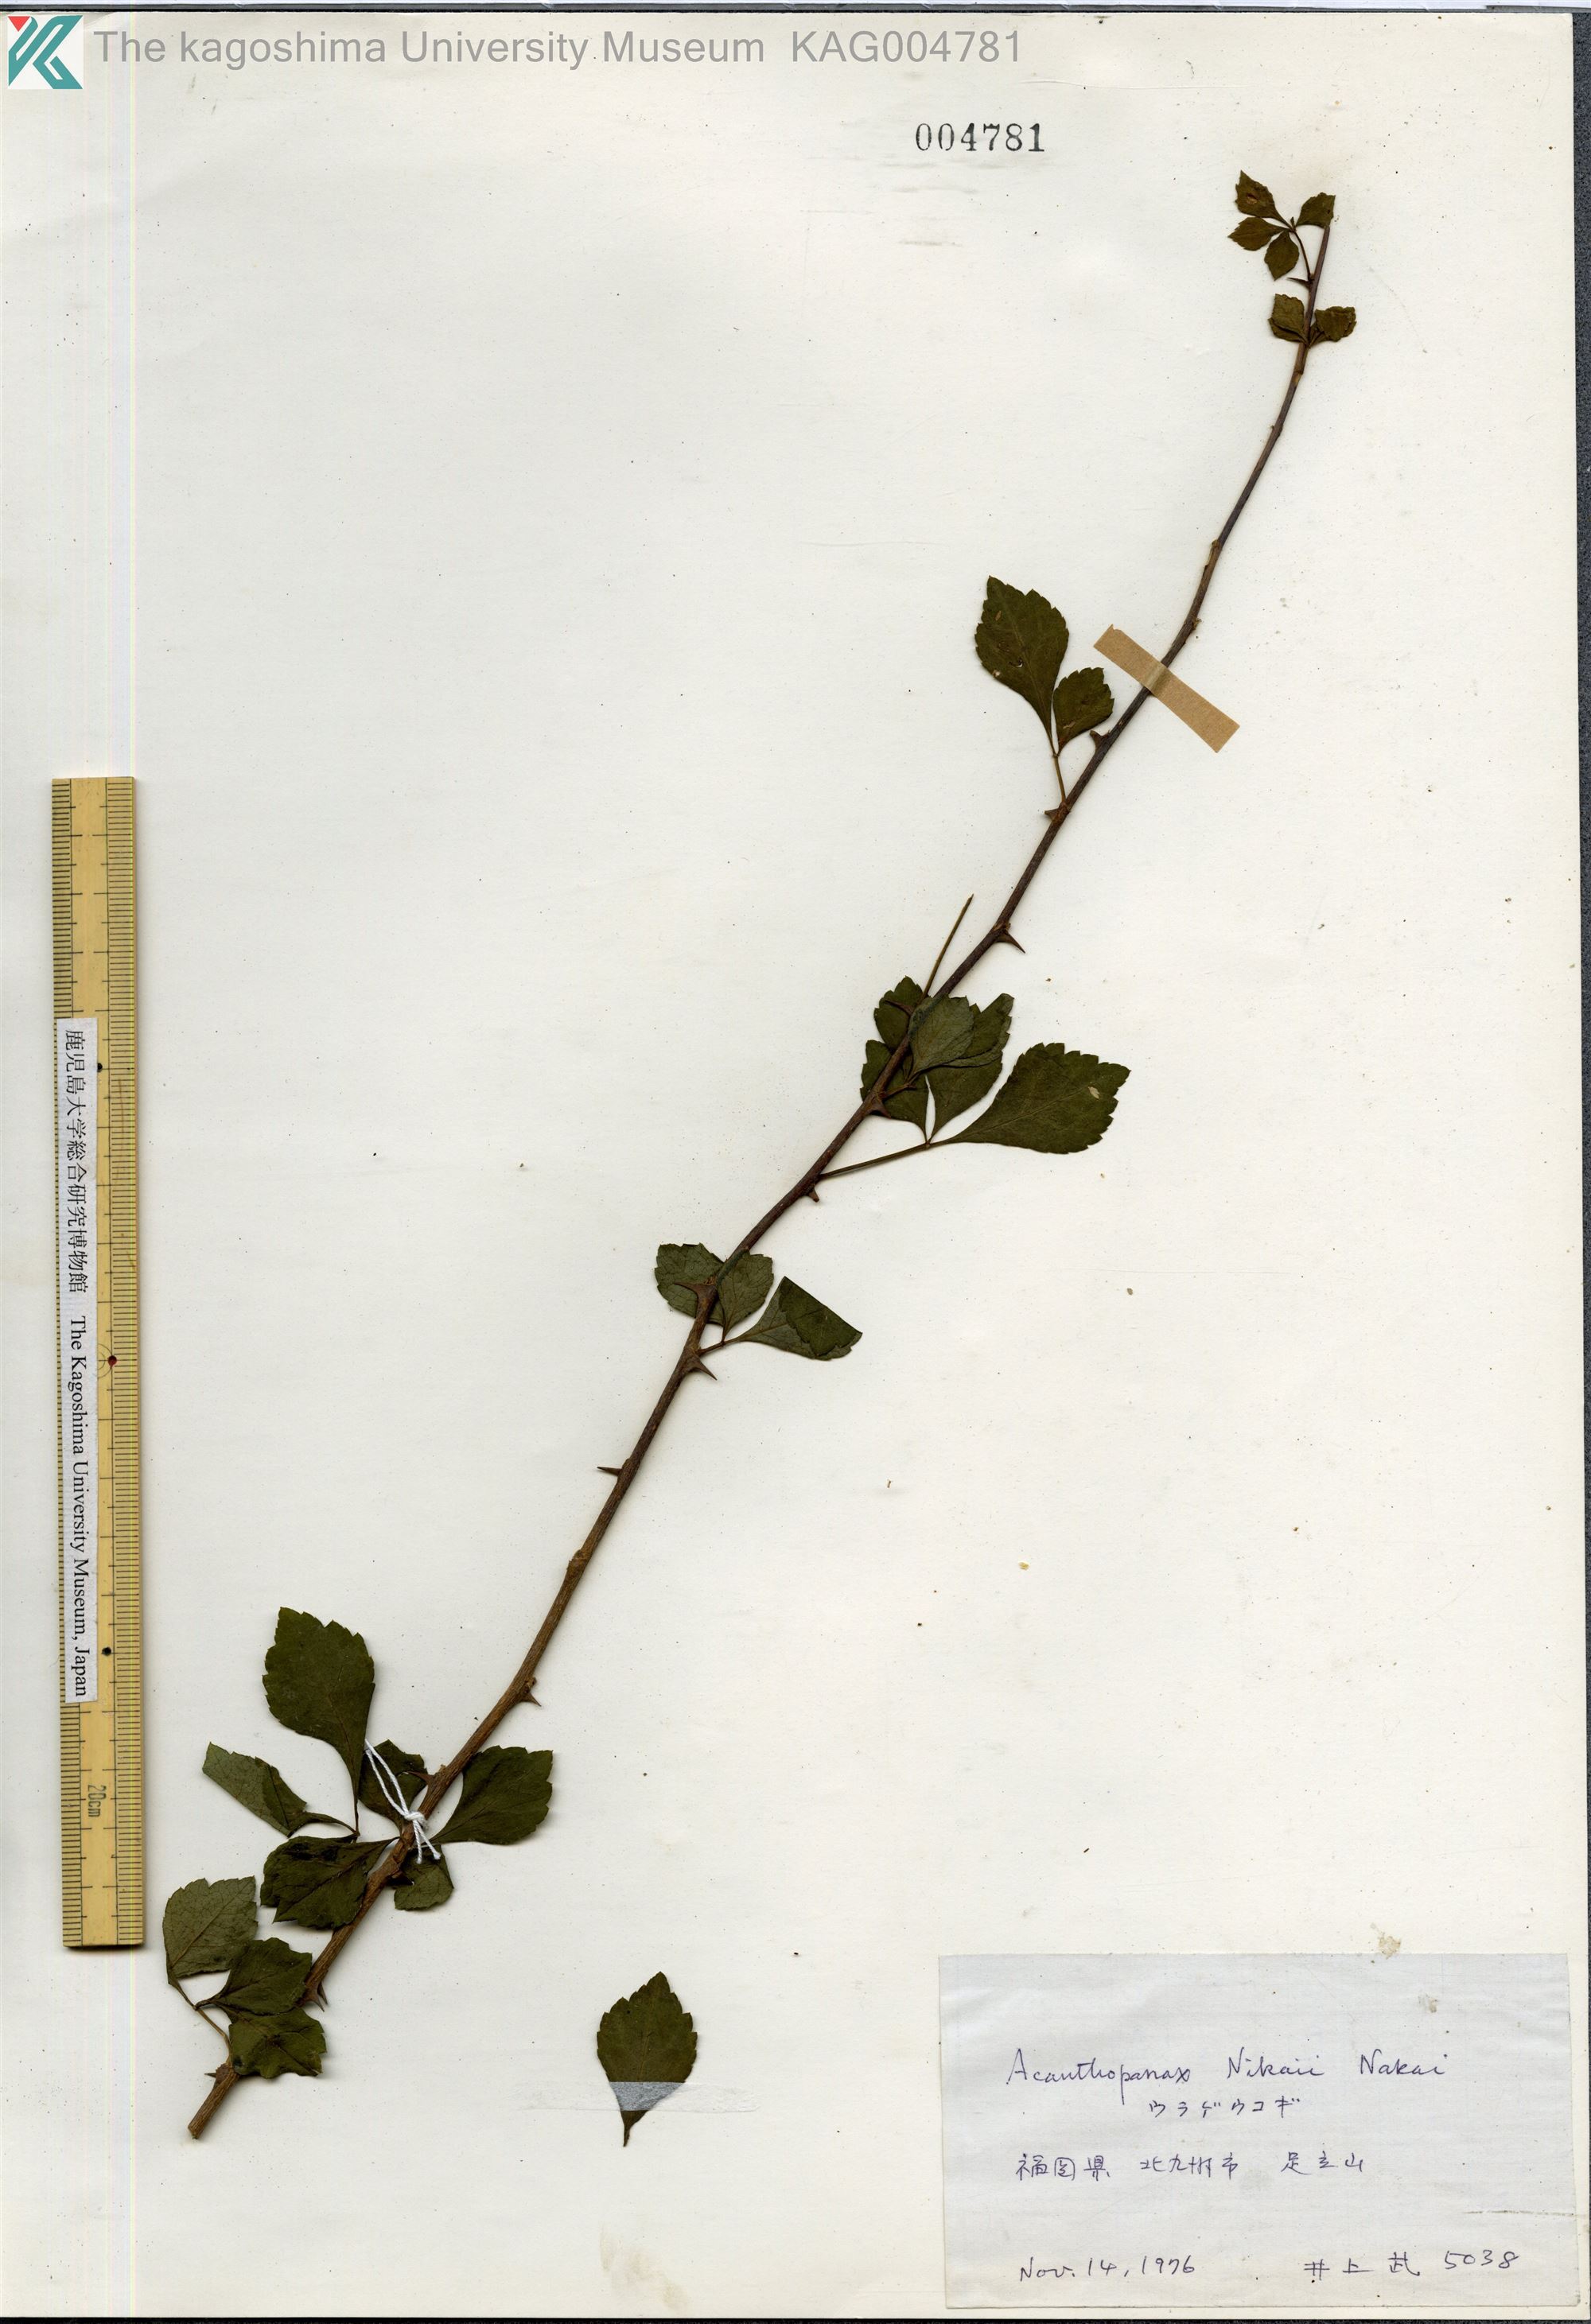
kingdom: Plantae
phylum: Tracheophyta
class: Magnoliopsida
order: Apiales
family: Araliaceae
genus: Eleutherococcus
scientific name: Eleutherococcus japonicus
